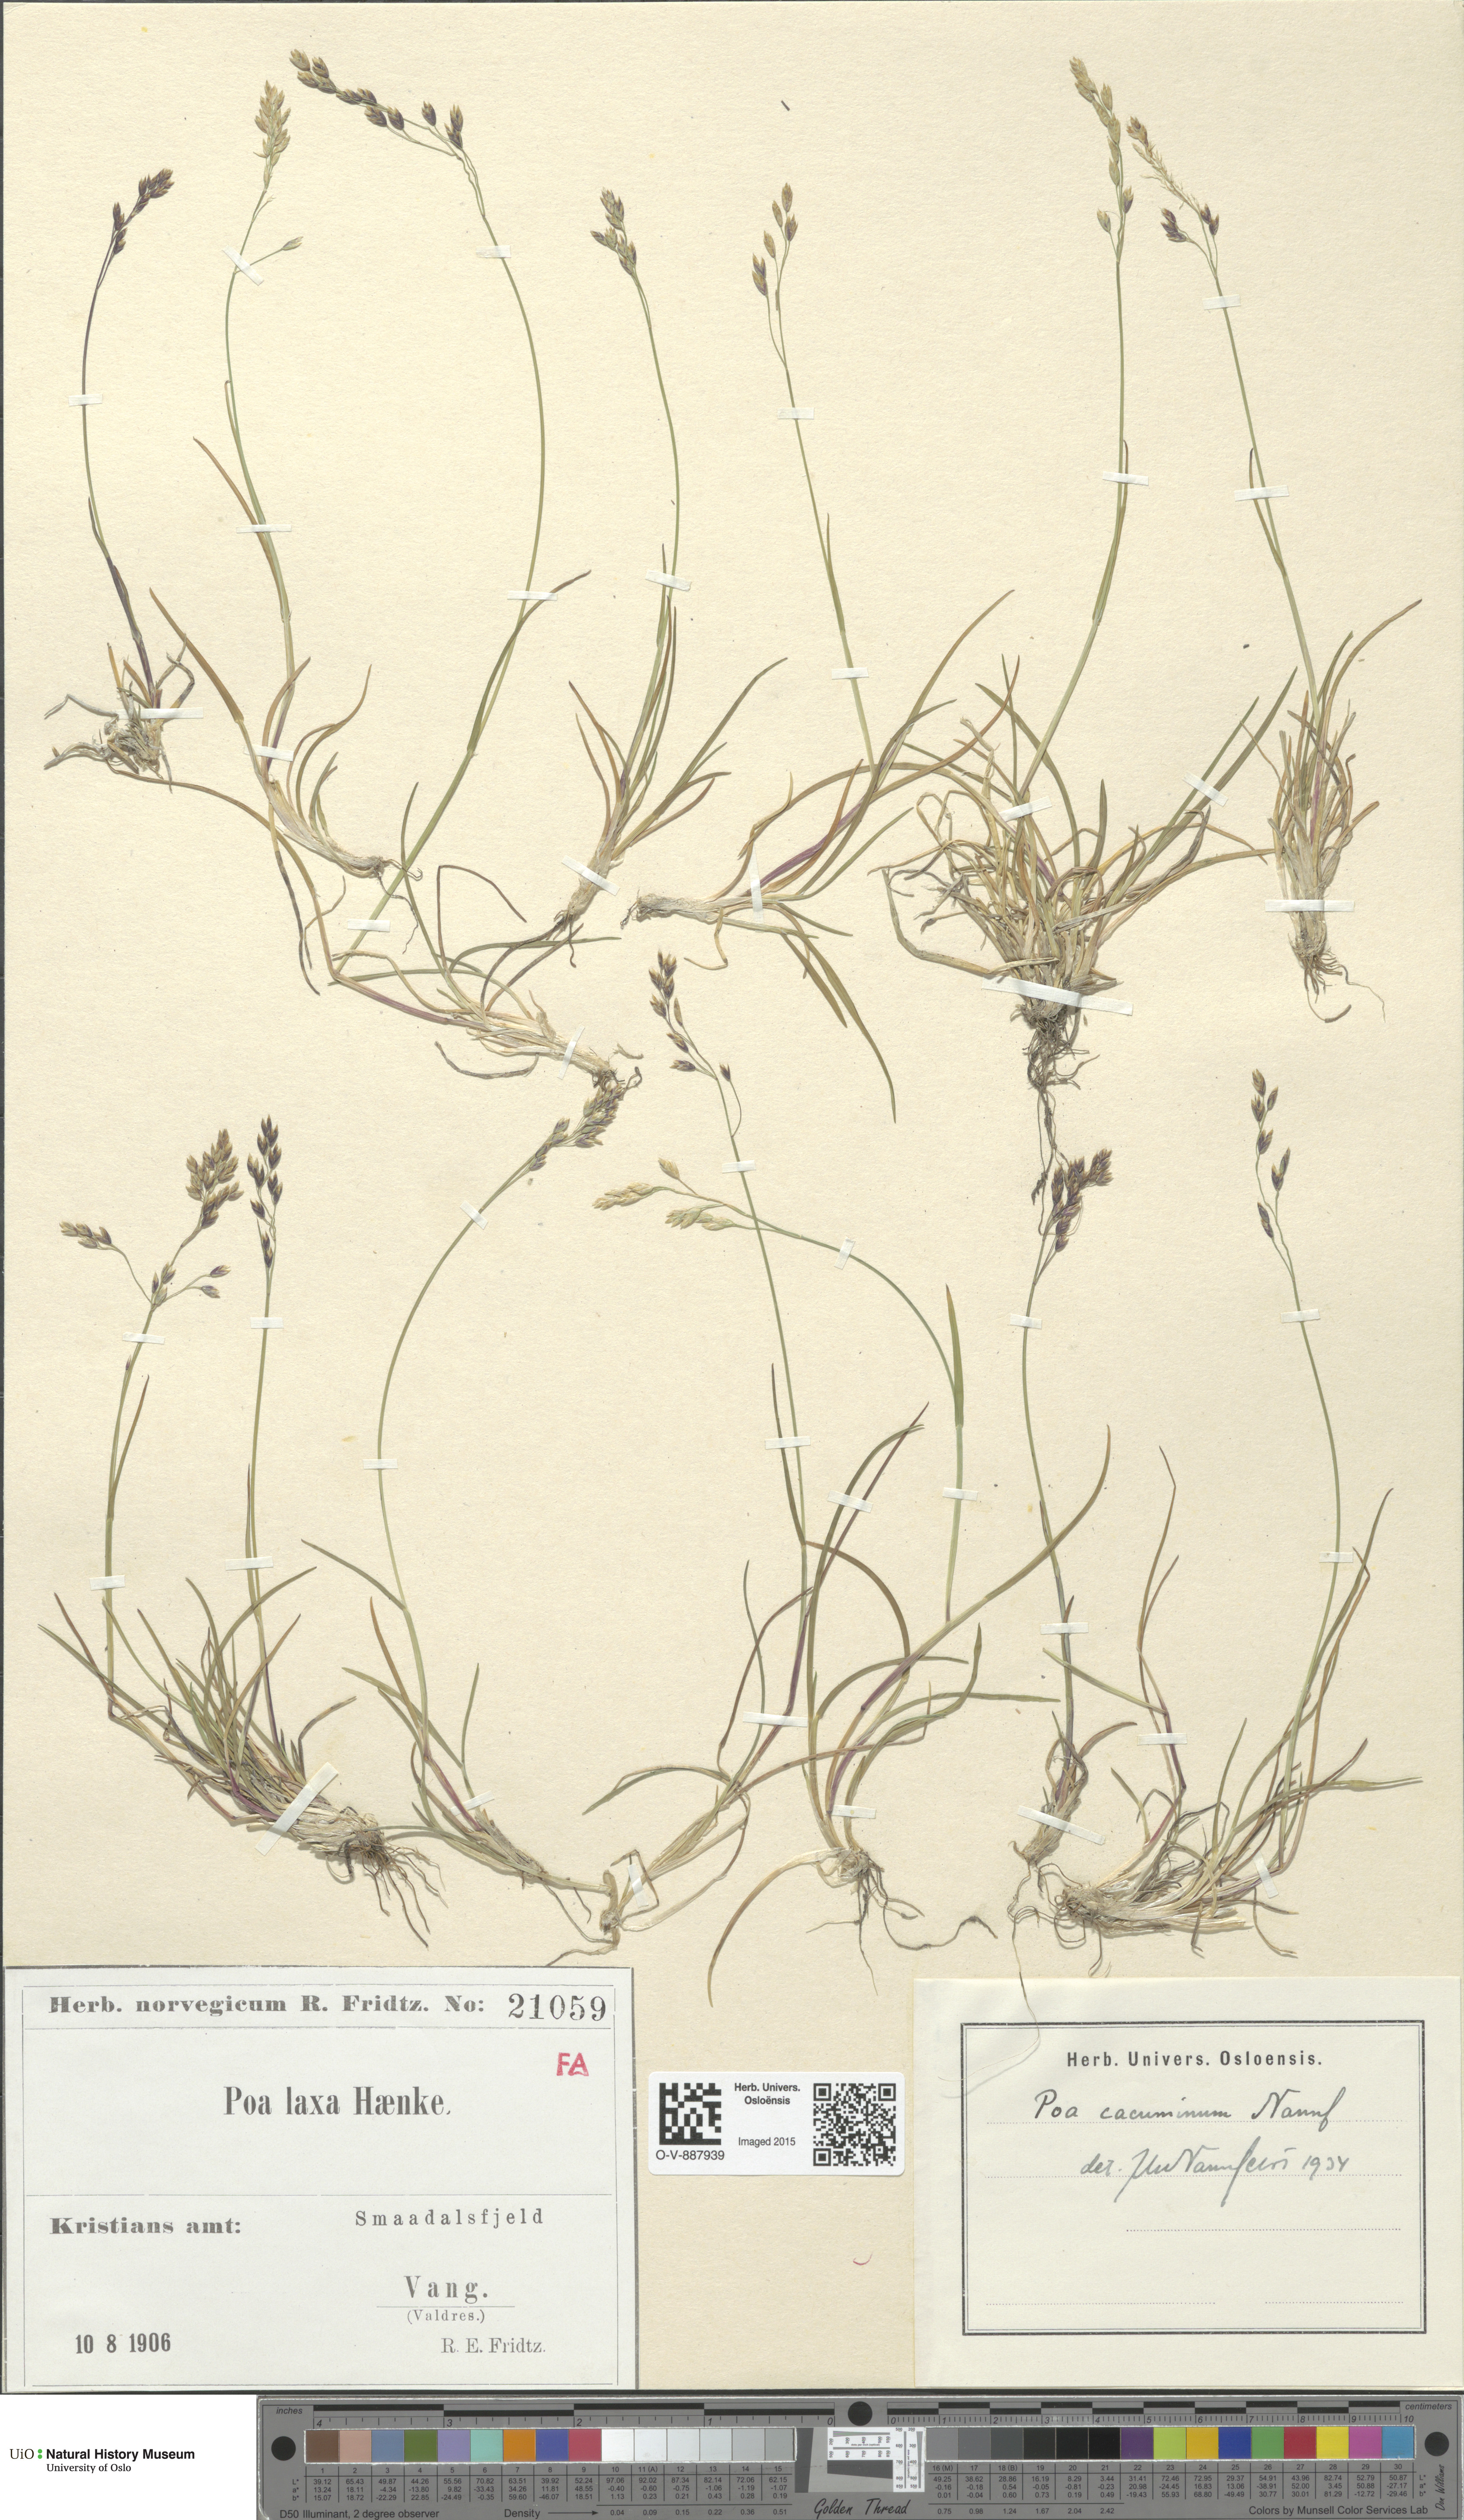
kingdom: Plantae
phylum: Tracheophyta
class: Liliopsida
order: Poales
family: Poaceae
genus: Poa
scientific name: Poa flexuosa
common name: Wavy meadow-grass
